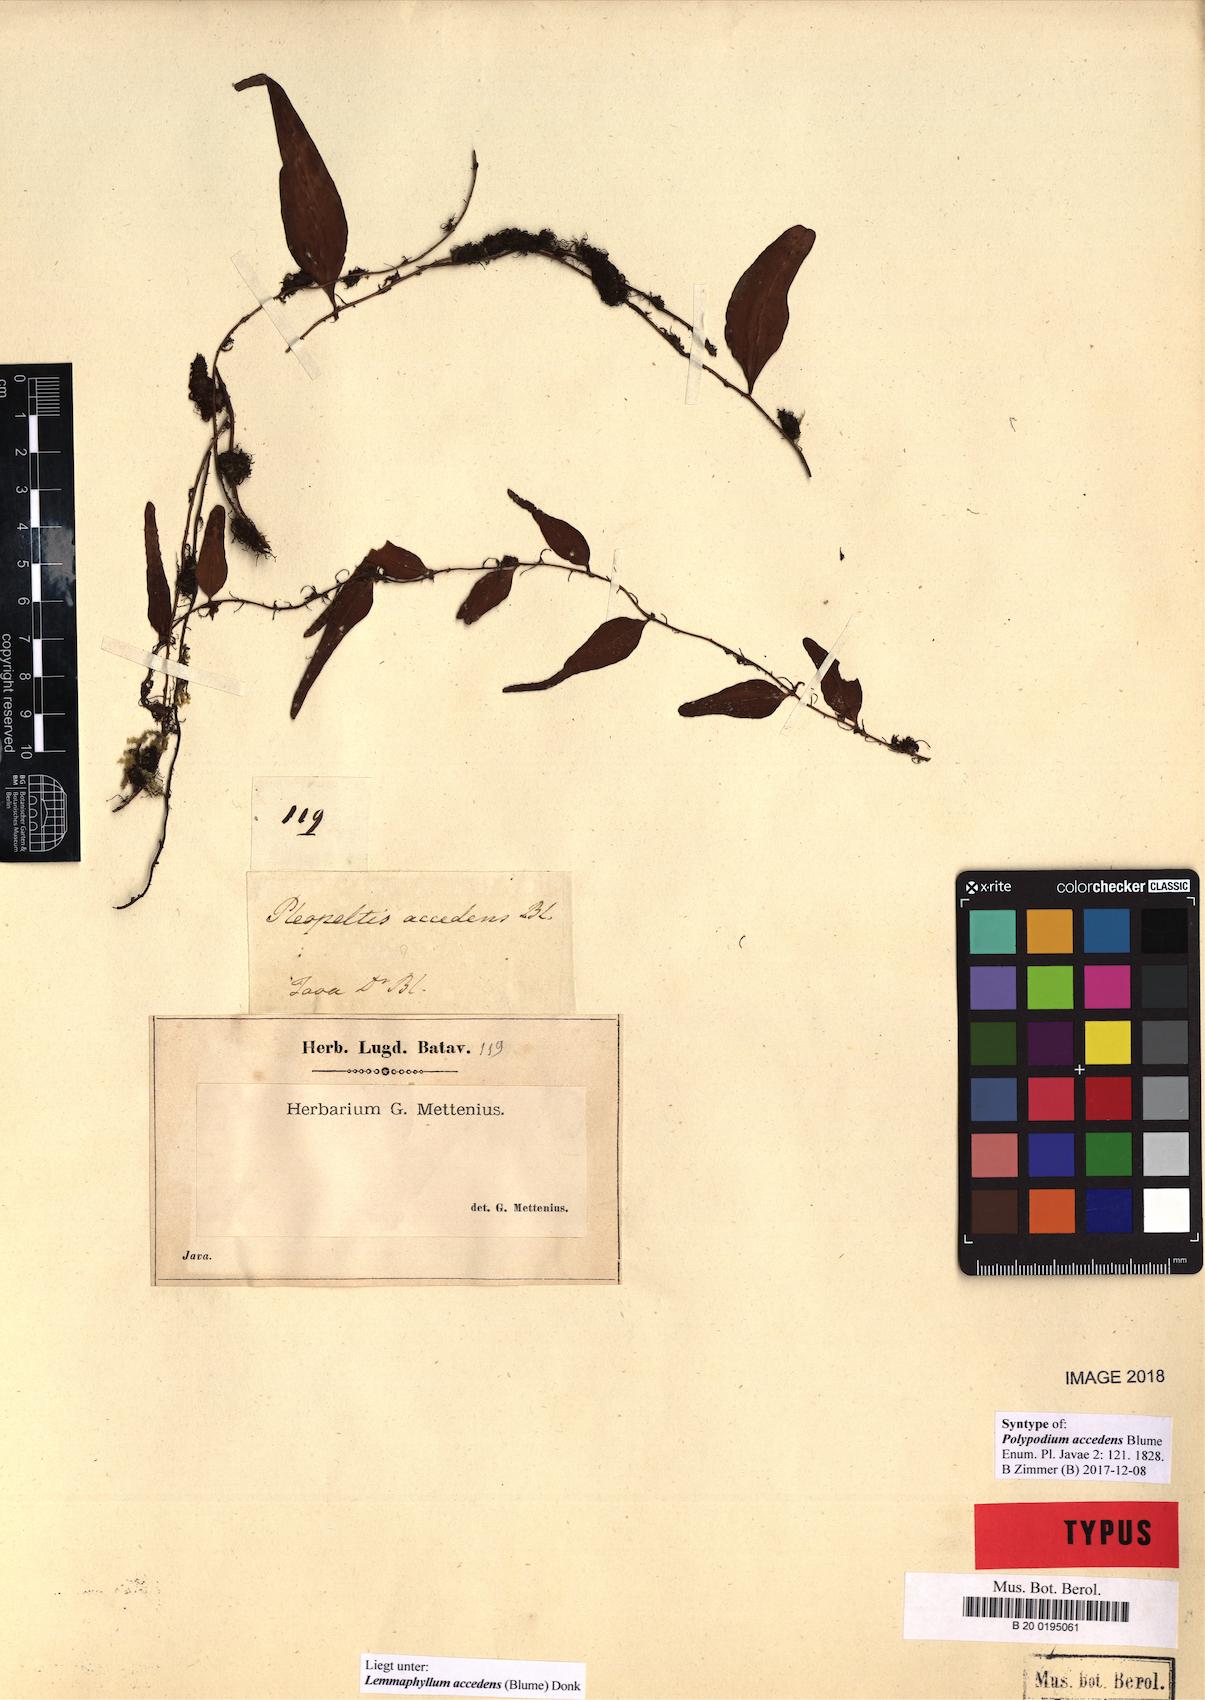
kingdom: Plantae
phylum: Tracheophyta
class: Polypodiopsida
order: Polypodiales
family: Polypodiaceae
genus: Lepisorus
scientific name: Lepisorus accedens
